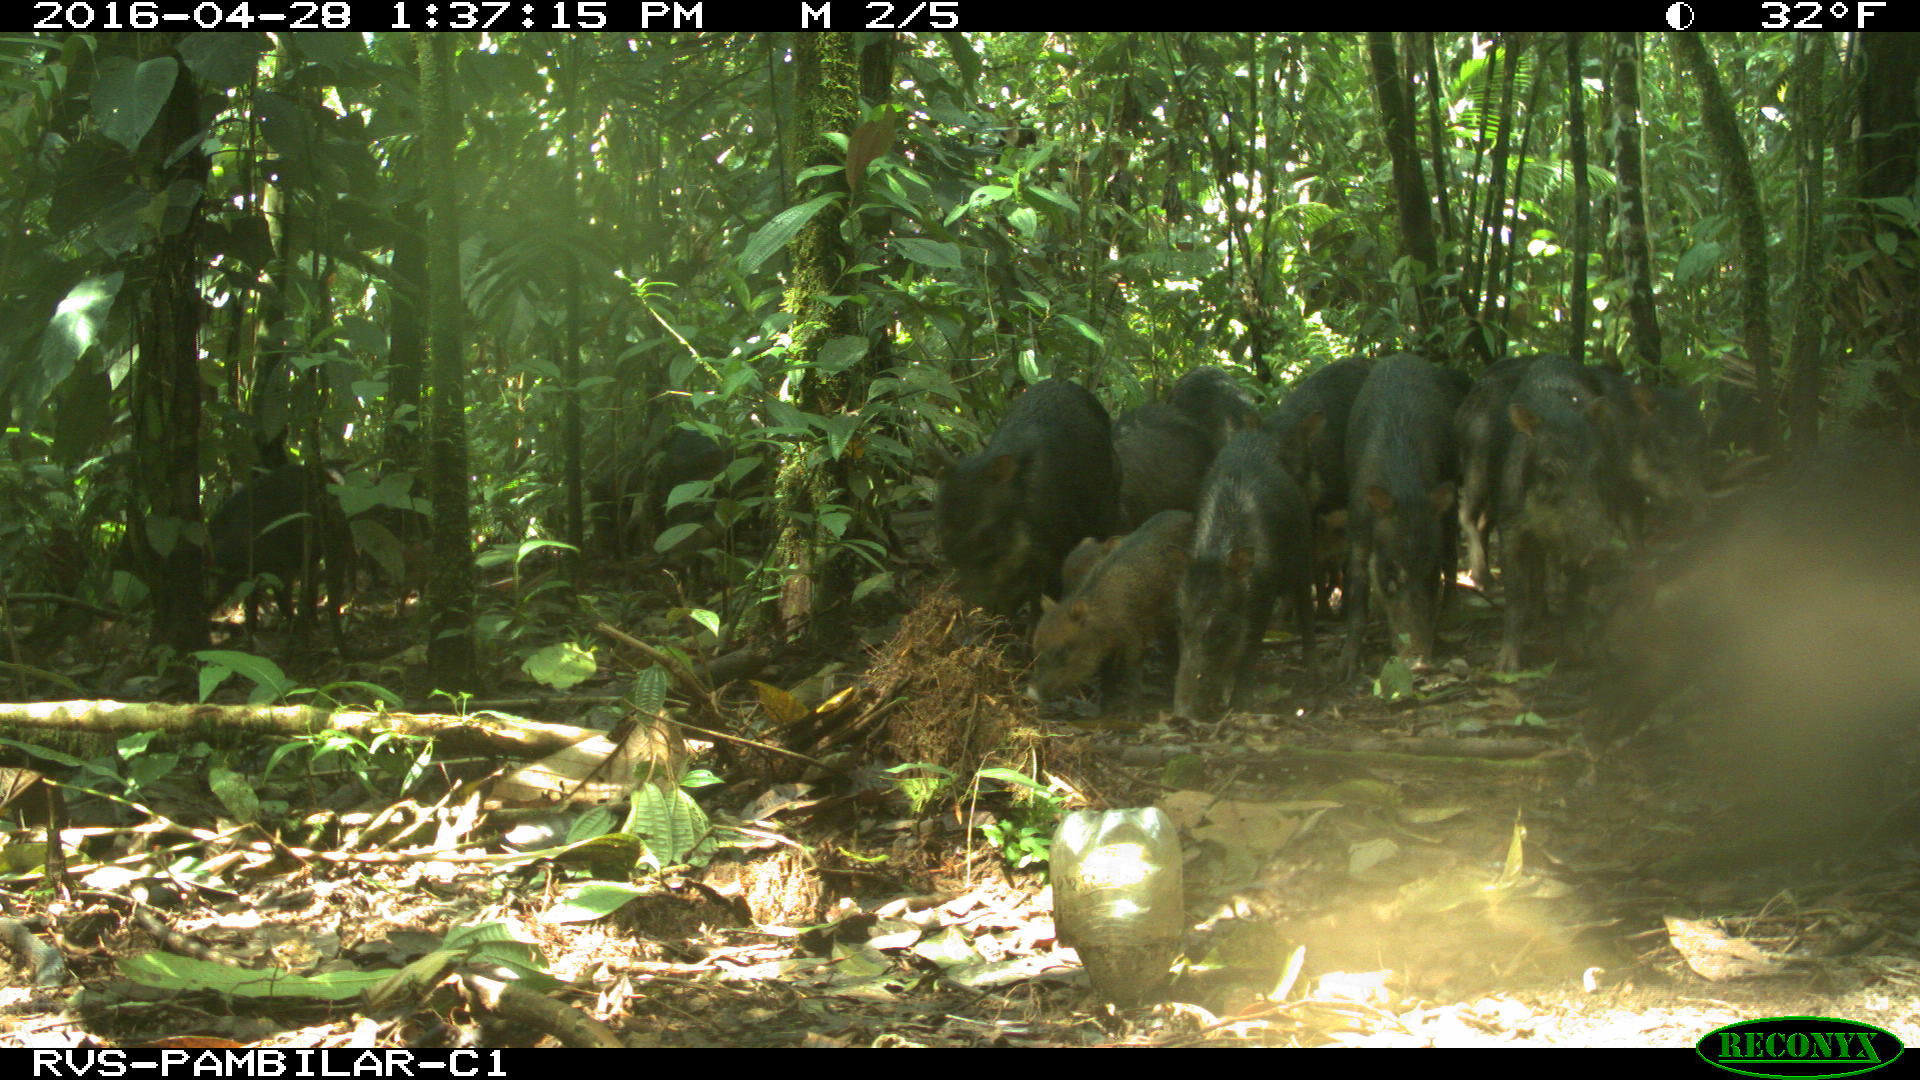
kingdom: Animalia
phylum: Chordata
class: Mammalia
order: Artiodactyla
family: Tayassuidae
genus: Tayassu
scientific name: Tayassu pecari
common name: White-lipped peccary
